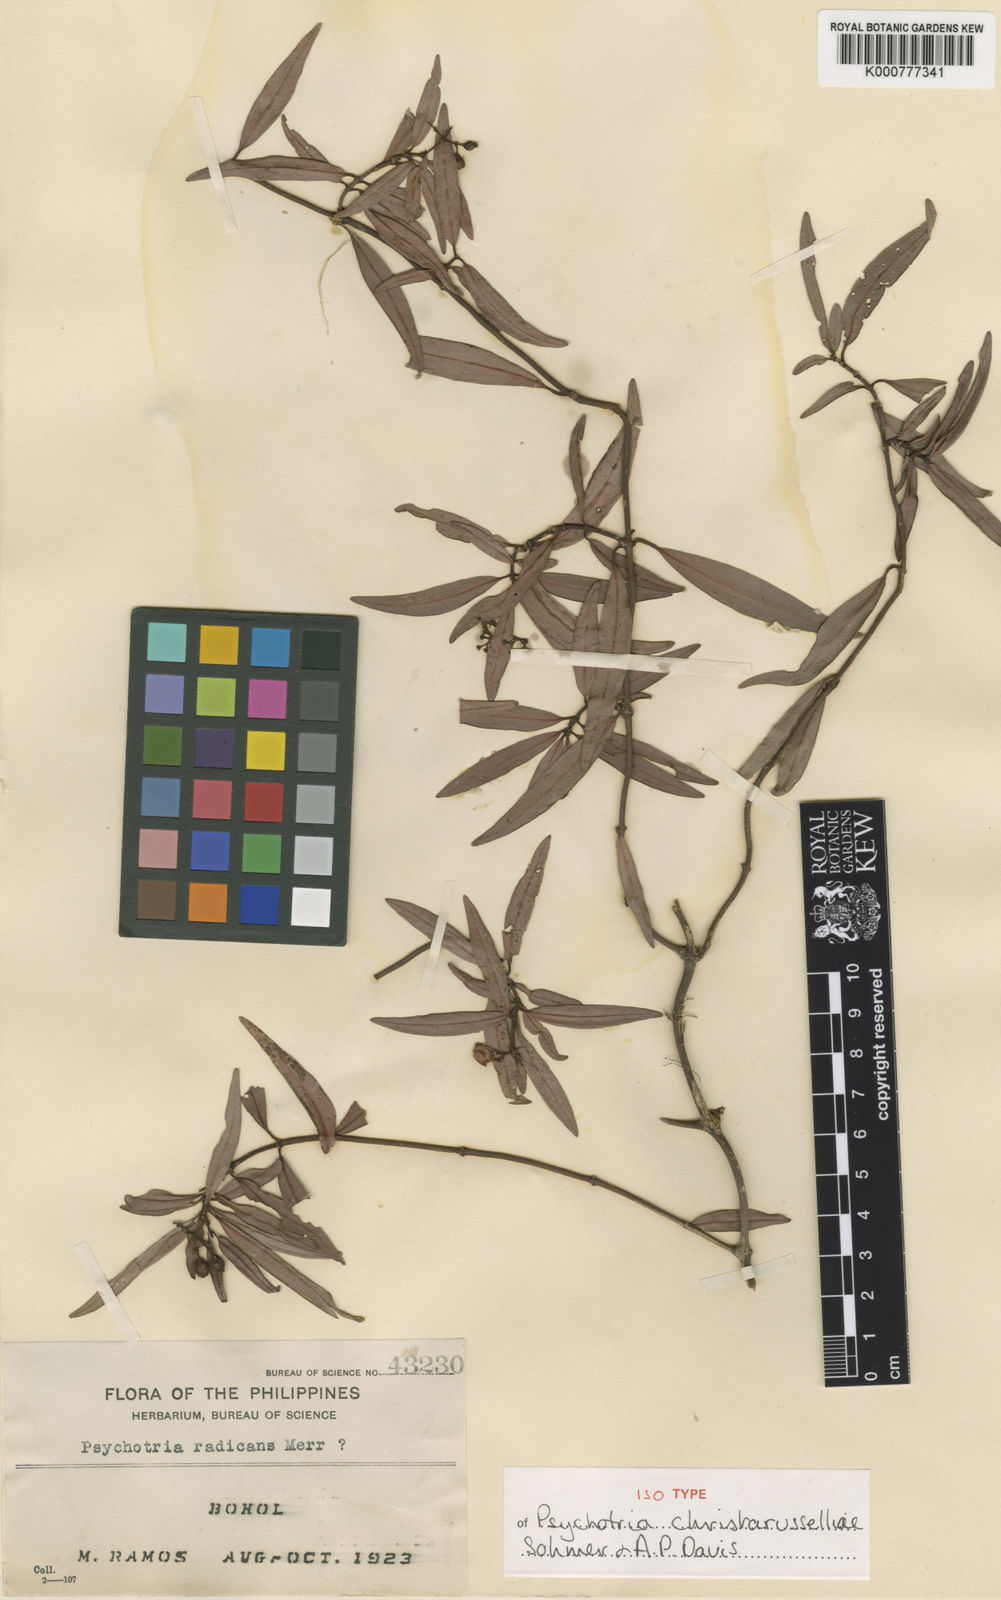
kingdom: Plantae
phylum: Tracheophyta
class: Magnoliopsida
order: Gentianales
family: Rubiaceae
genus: Psychotria
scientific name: Psychotria christarusselliae
